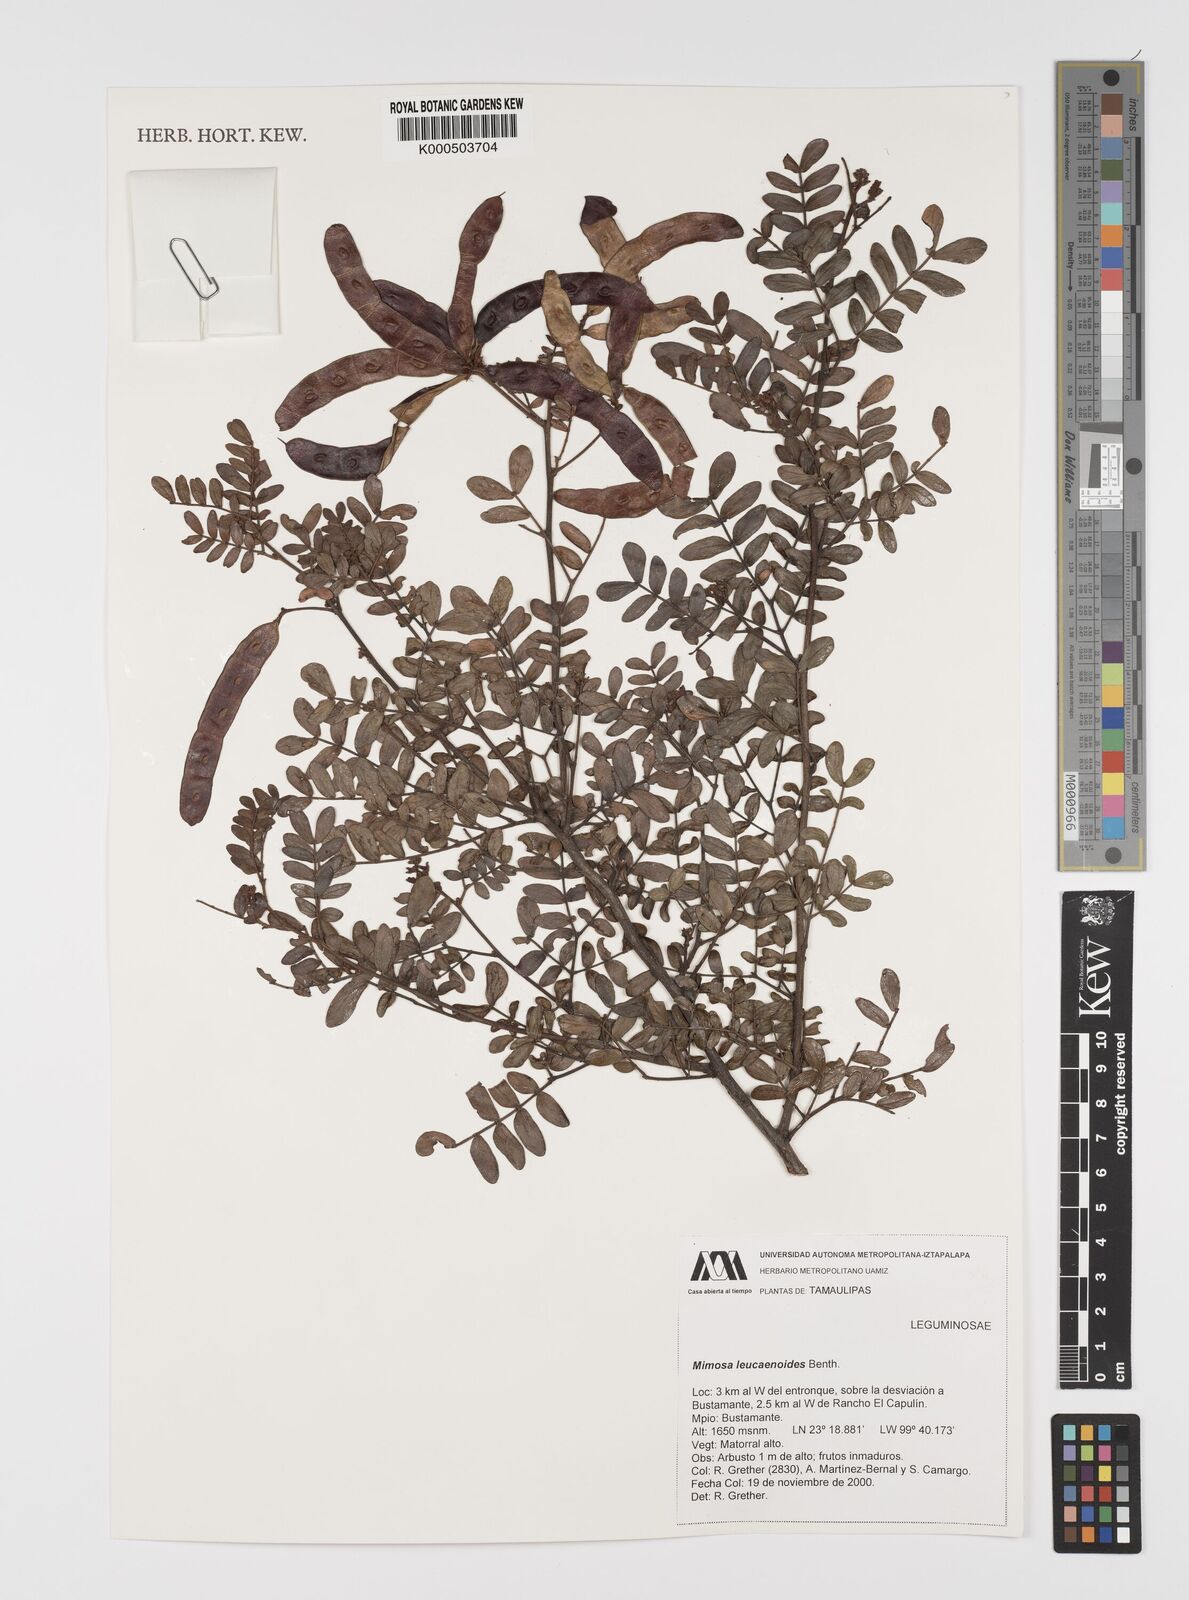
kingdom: Plantae
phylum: Tracheophyta
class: Magnoliopsida
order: Fabales
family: Fabaceae
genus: Mimosa
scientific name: Mimosa leucaenoides
